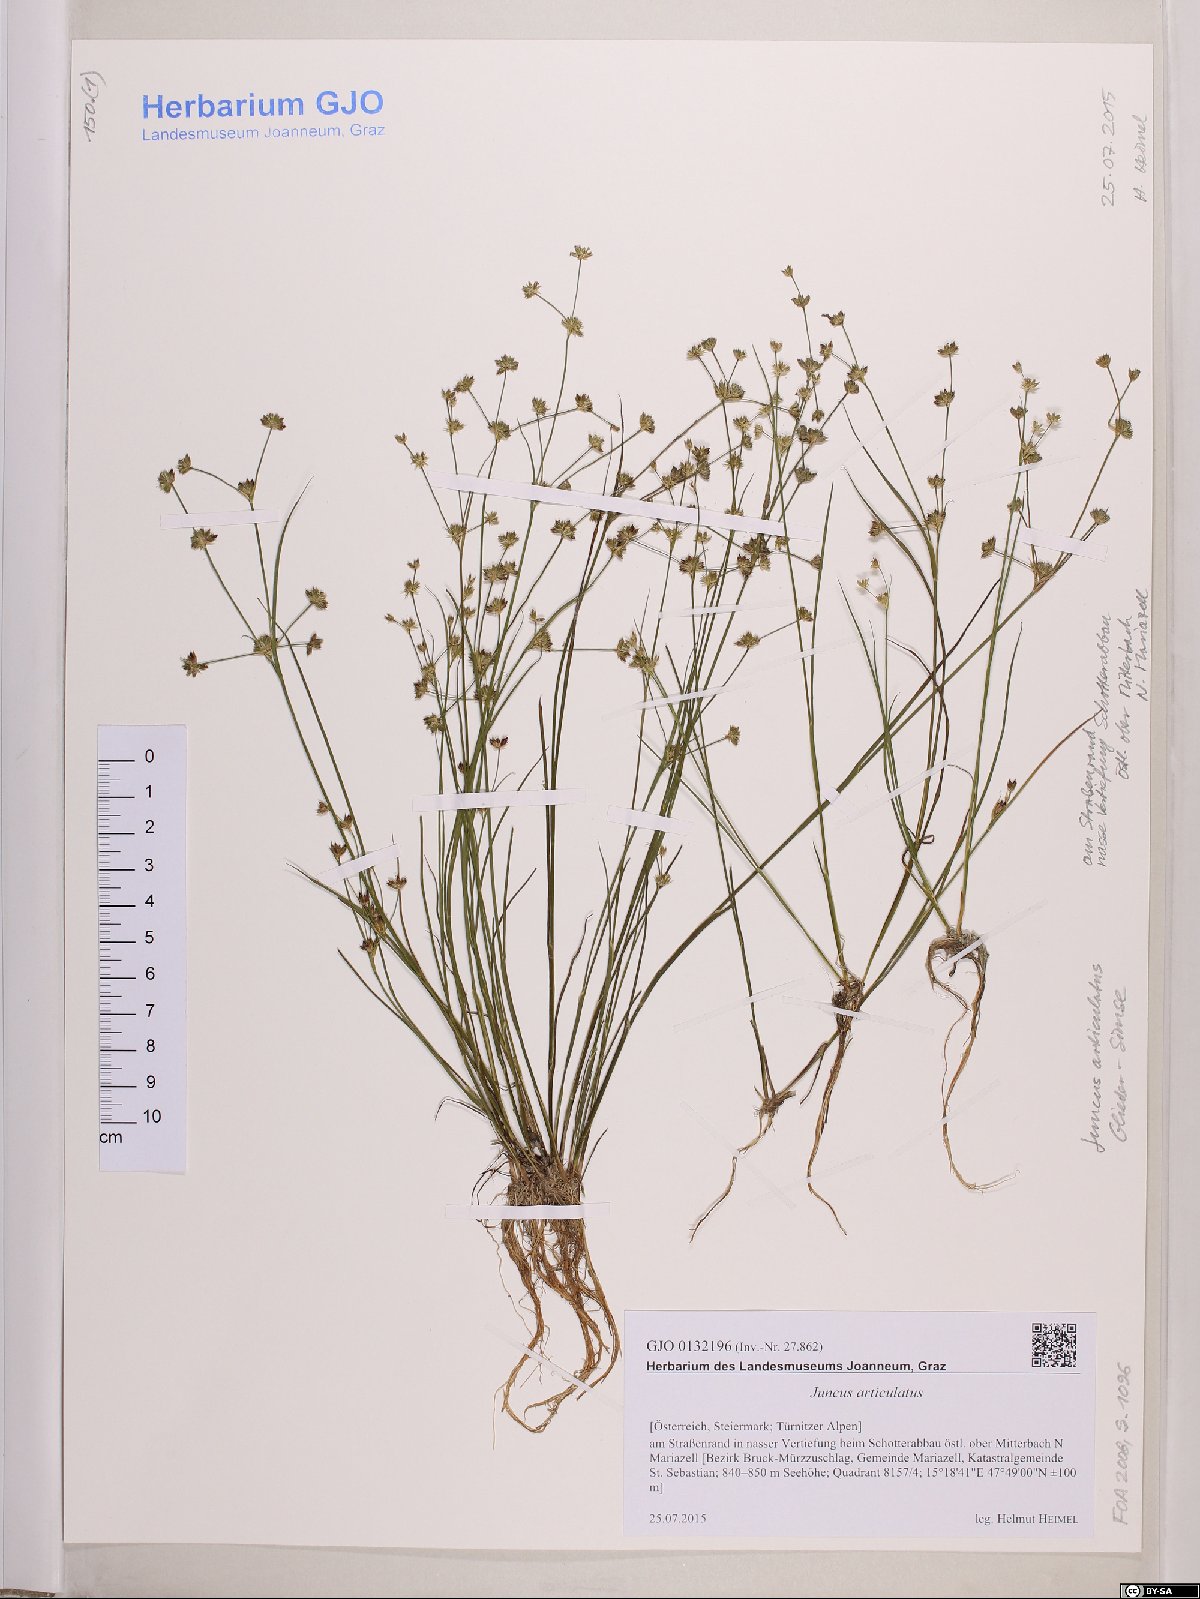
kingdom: Plantae
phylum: Tracheophyta
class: Liliopsida
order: Poales
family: Juncaceae
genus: Juncus
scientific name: Juncus articulatus
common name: Jointed rush
